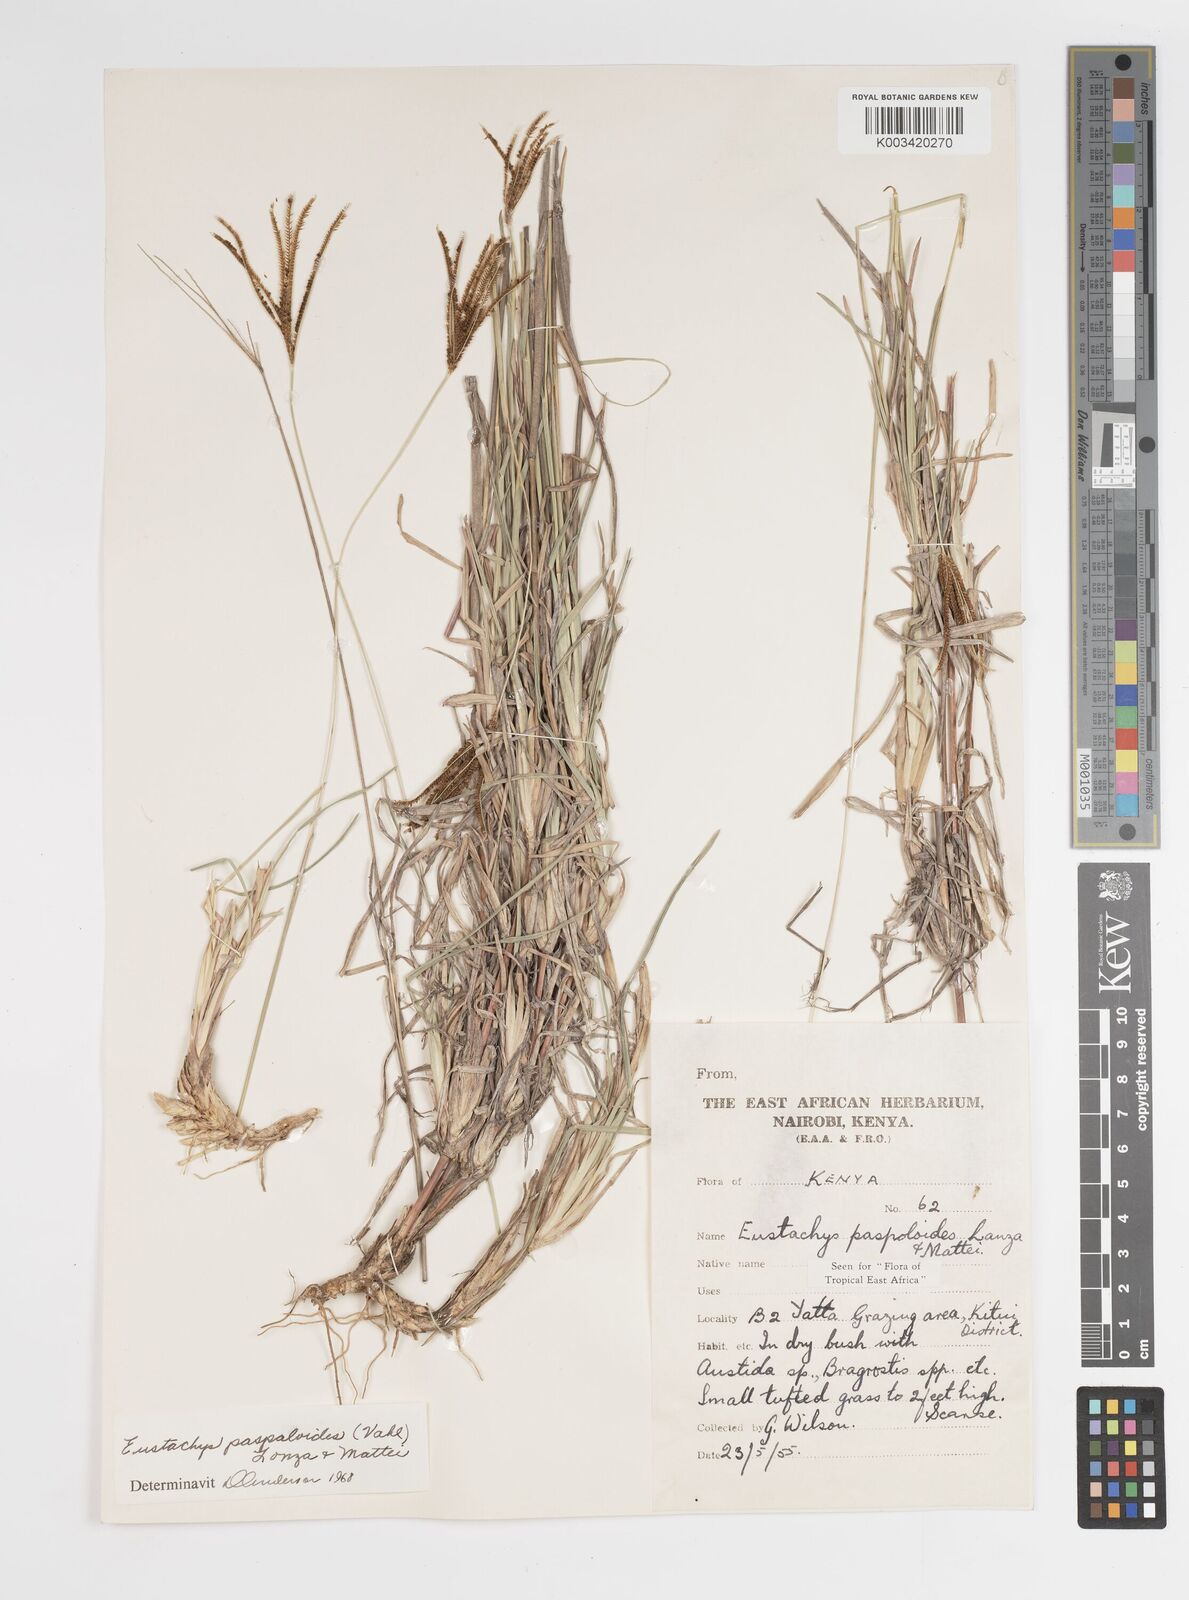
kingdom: Plantae
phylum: Tracheophyta
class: Liliopsida
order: Poales
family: Poaceae
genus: Eustachys
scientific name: Eustachys paspaloides
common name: Caribbean fingergrass
